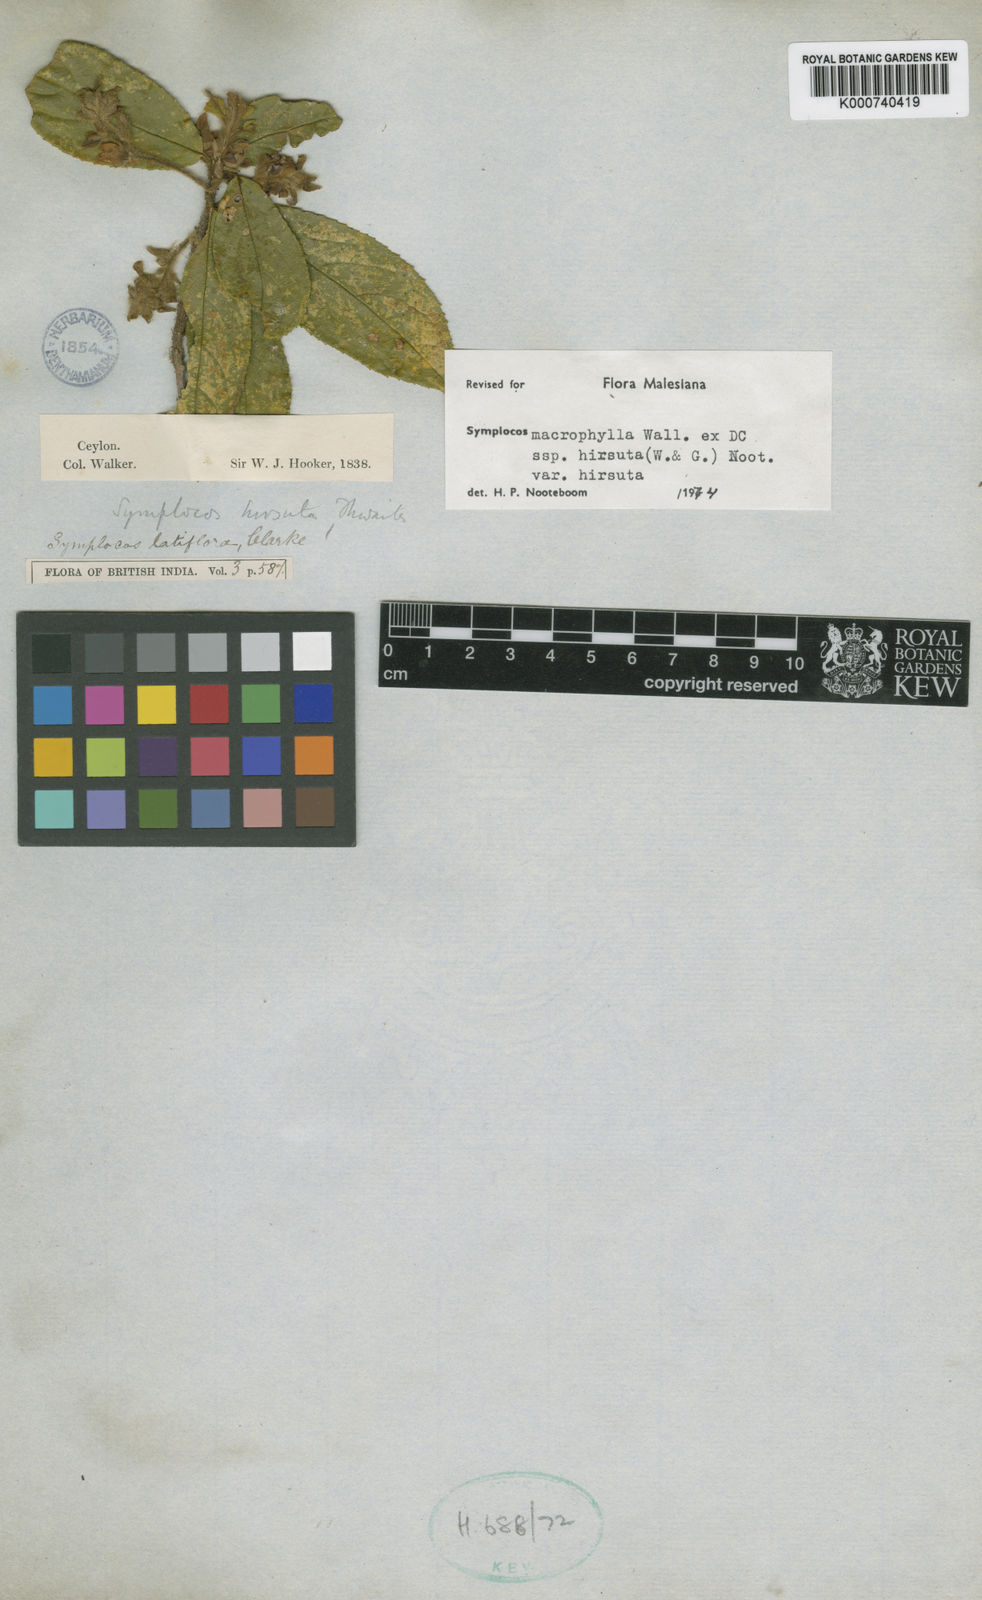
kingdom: Plantae
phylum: Tracheophyta
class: Magnoliopsida
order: Ericales
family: Symplocaceae
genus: Symplocos
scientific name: Symplocos macrophylla
